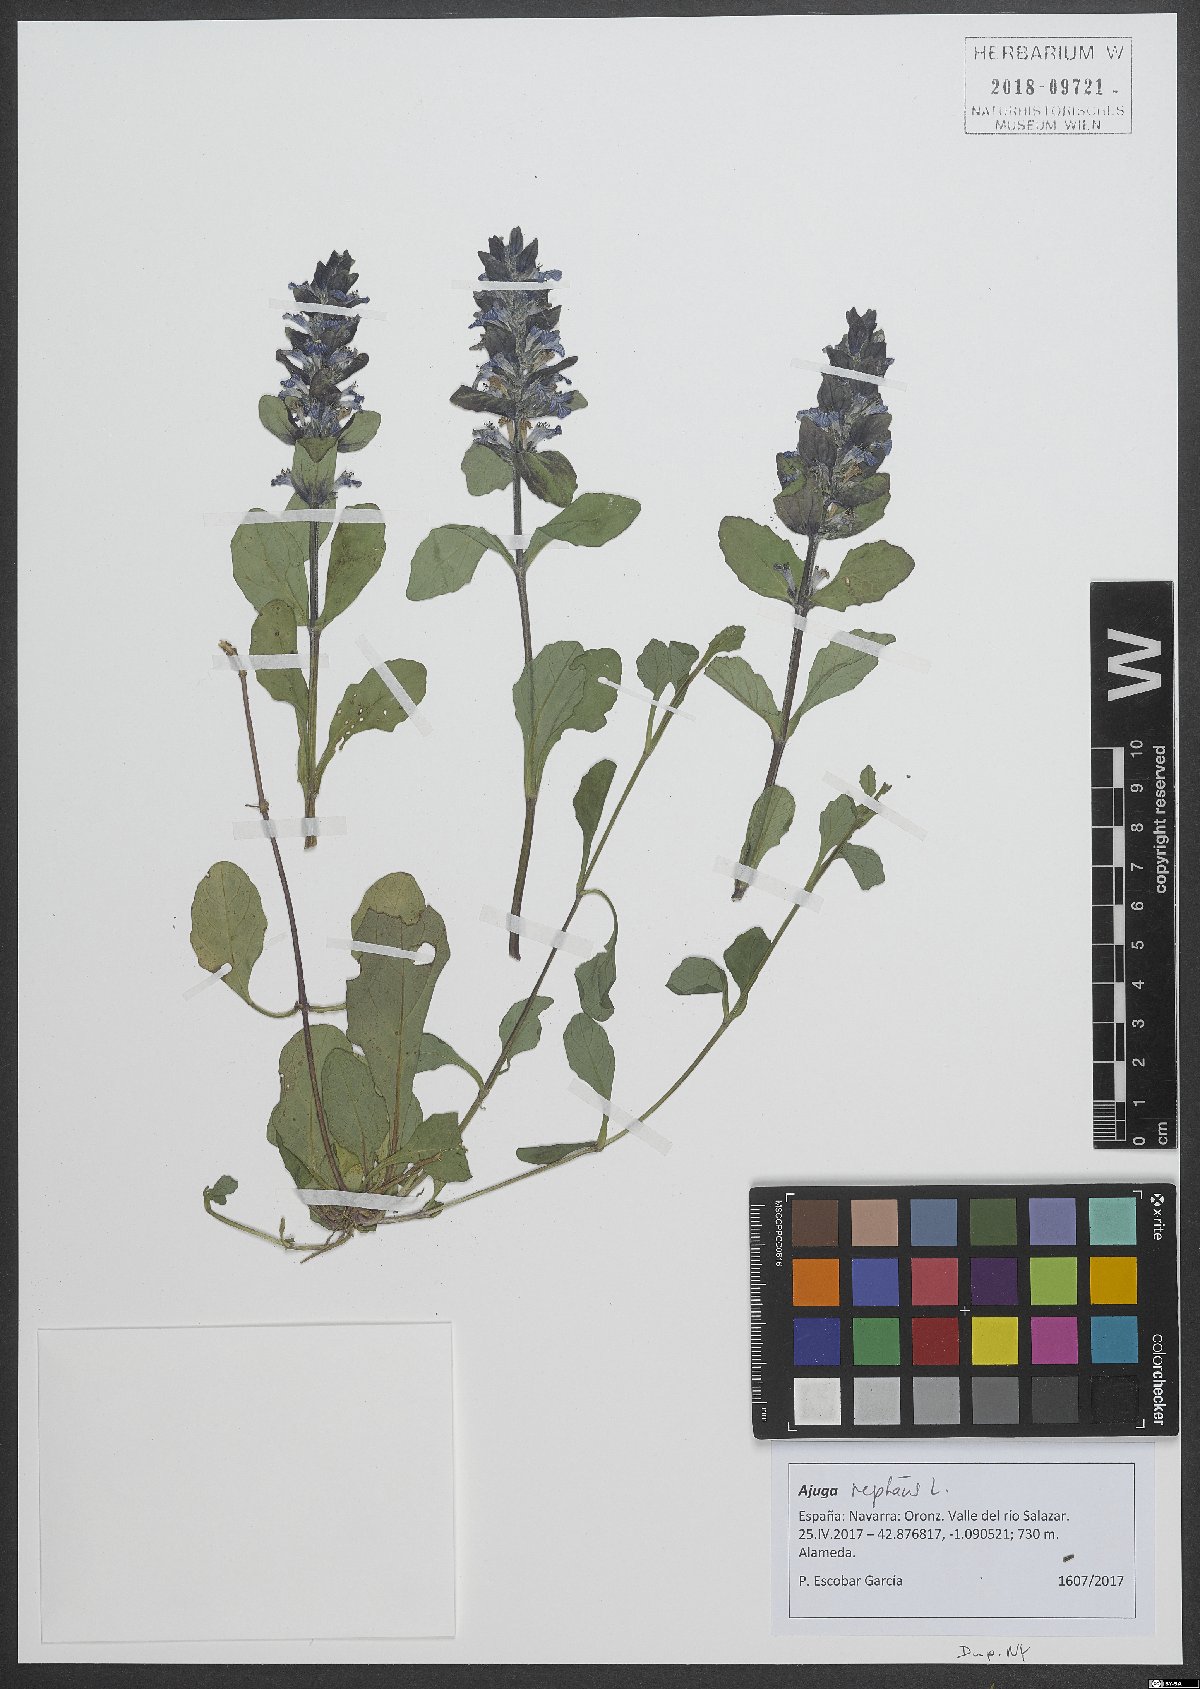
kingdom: Plantae
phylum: Tracheophyta
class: Magnoliopsida
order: Lamiales
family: Lamiaceae
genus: Ajuga
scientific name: Ajuga reptans
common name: Bugle
